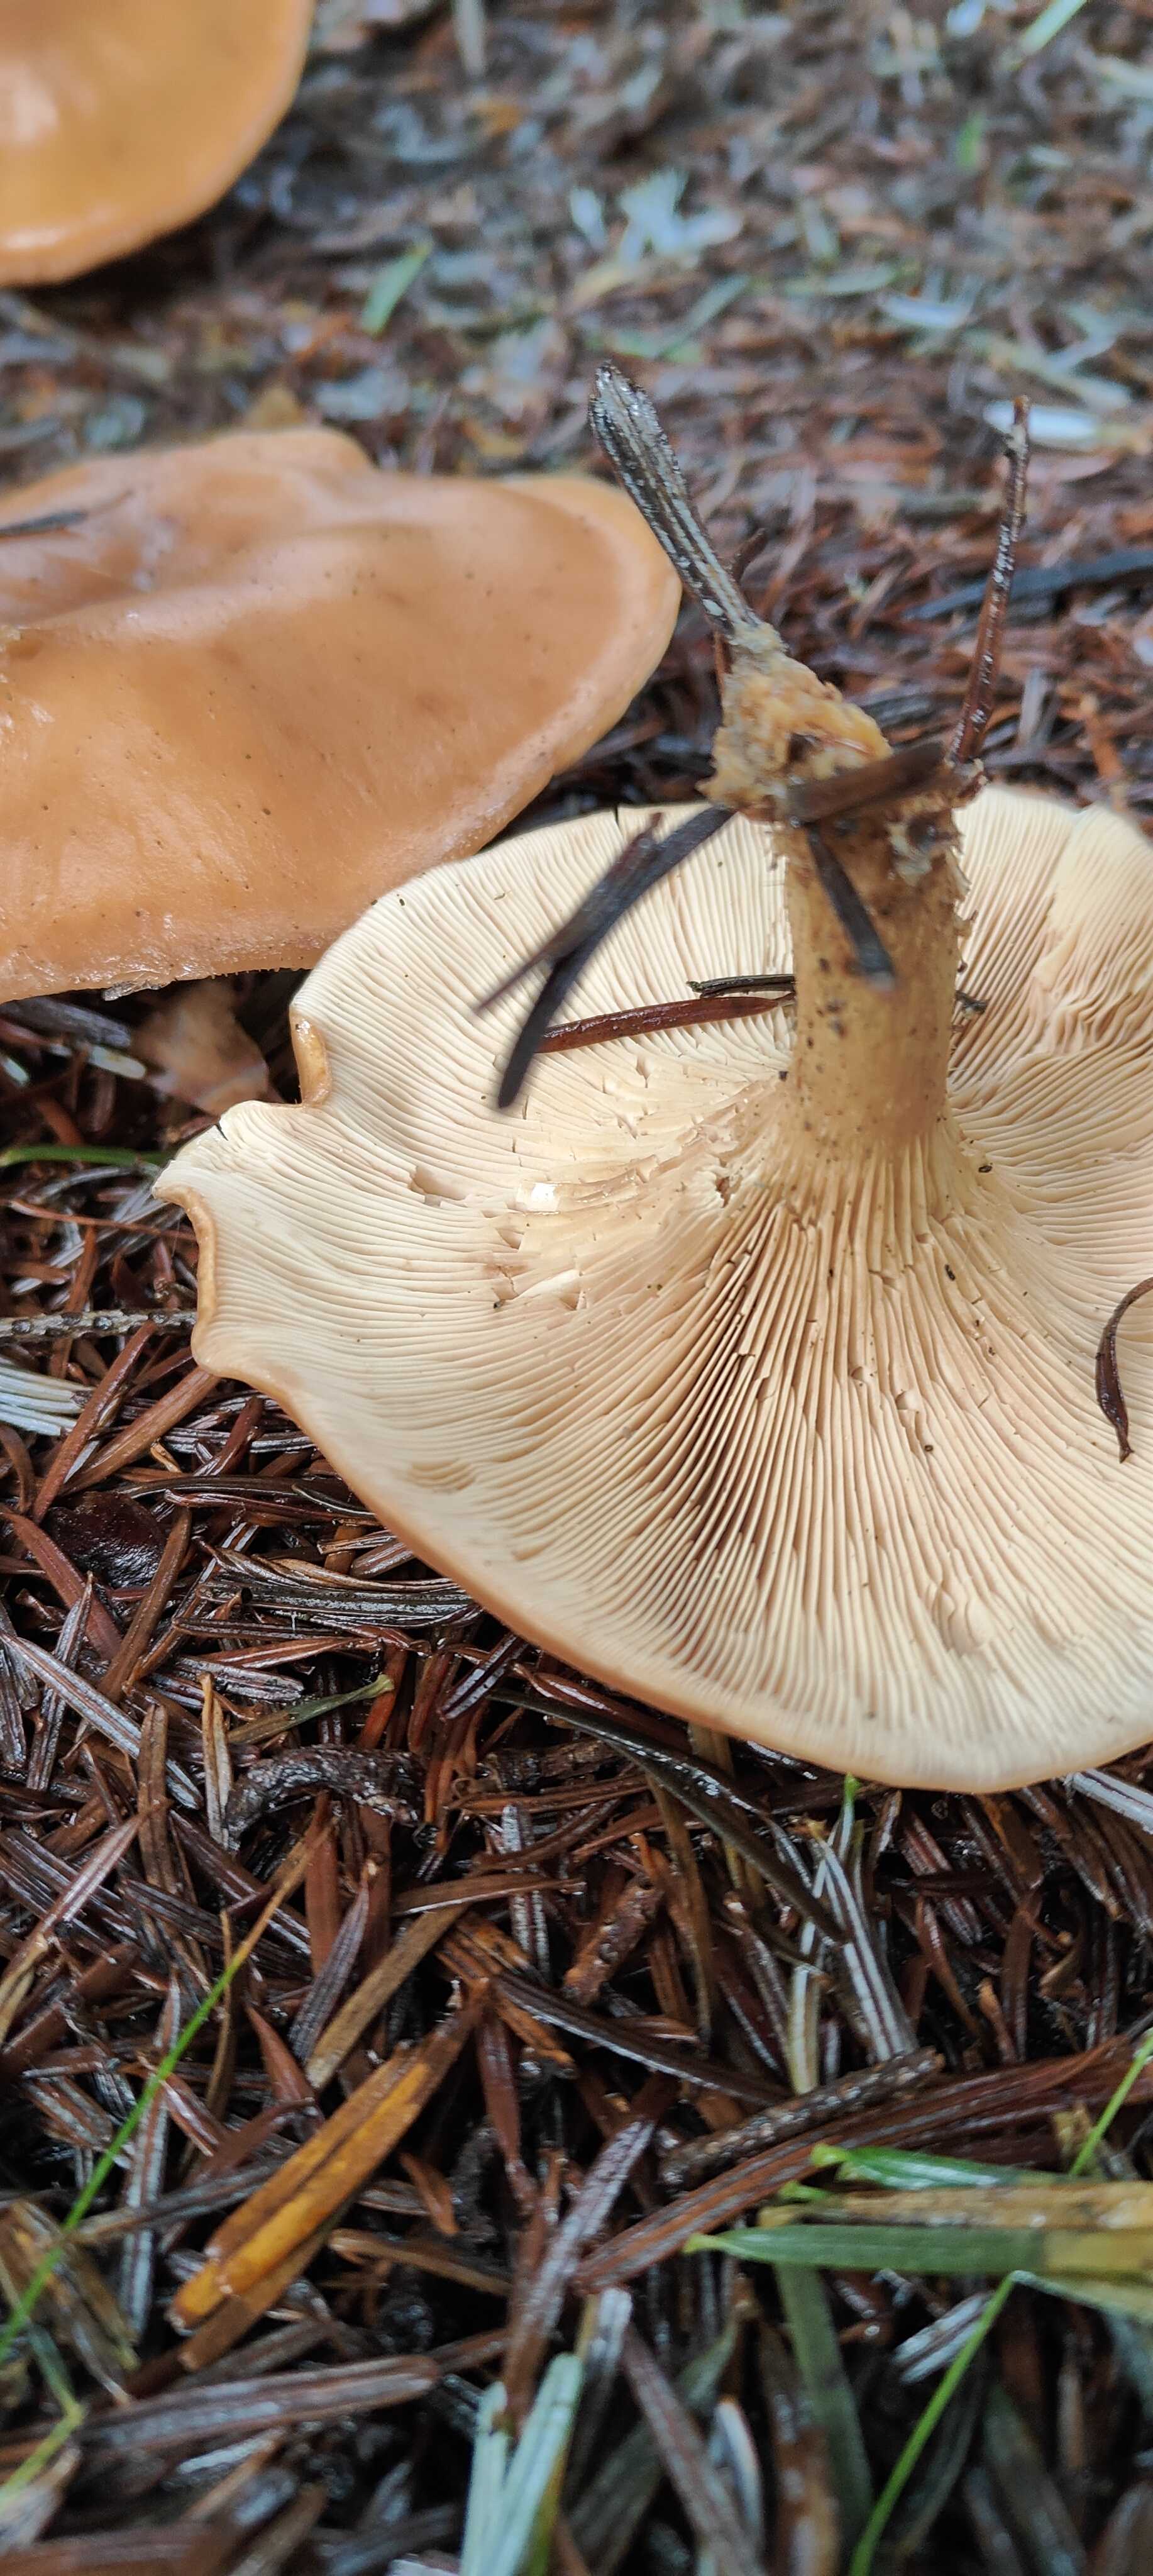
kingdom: Fungi
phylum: Basidiomycota
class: Agaricomycetes
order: Agaricales
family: Tricholomataceae
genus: Paralepista
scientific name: Paralepista flaccida
